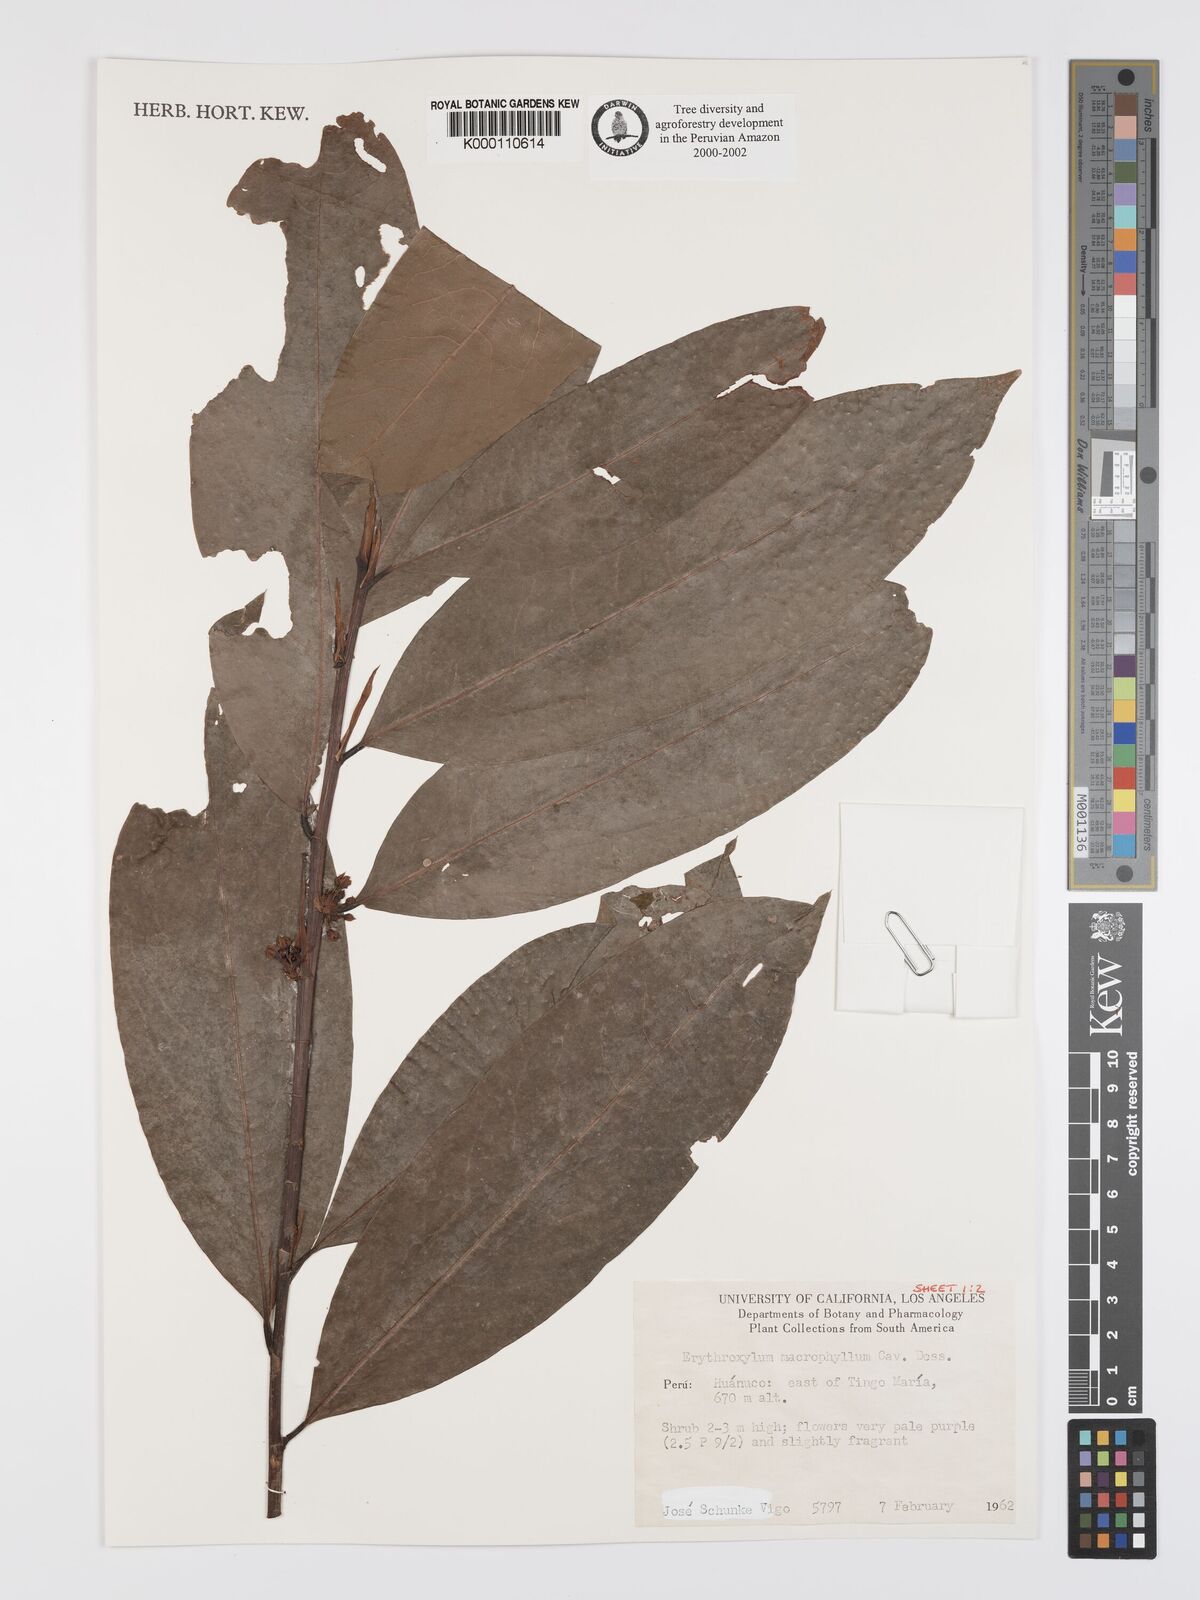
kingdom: Plantae
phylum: Tracheophyta
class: Magnoliopsida
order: Malpighiales
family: Erythroxylaceae
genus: Erythroxylum
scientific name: Erythroxylum
